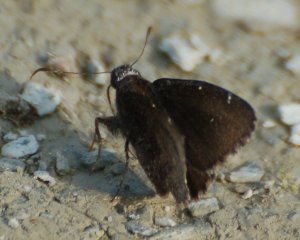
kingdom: Animalia
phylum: Arthropoda
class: Insecta
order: Lepidoptera
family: Hesperiidae
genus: Autochton
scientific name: Autochton
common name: Northern Cloudywing
